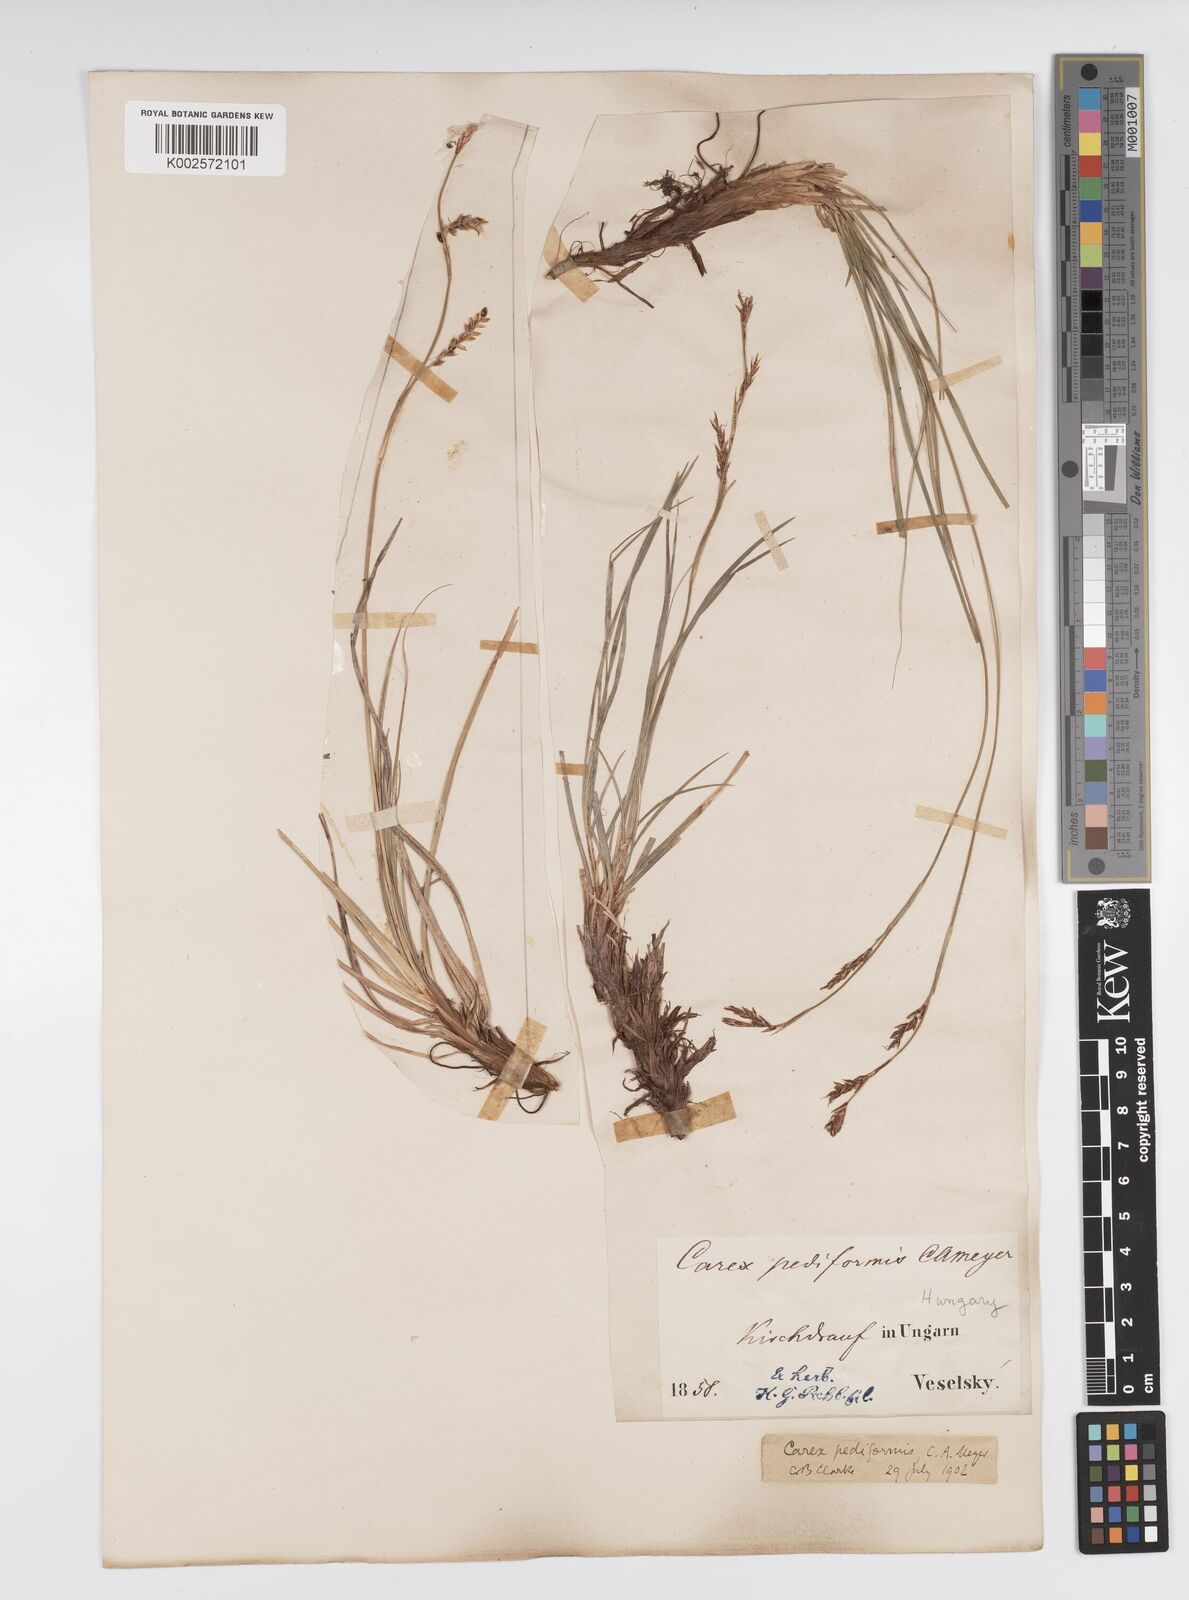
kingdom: Plantae
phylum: Tracheophyta
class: Liliopsida
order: Poales
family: Cyperaceae
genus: Carex
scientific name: Carex pediformis
